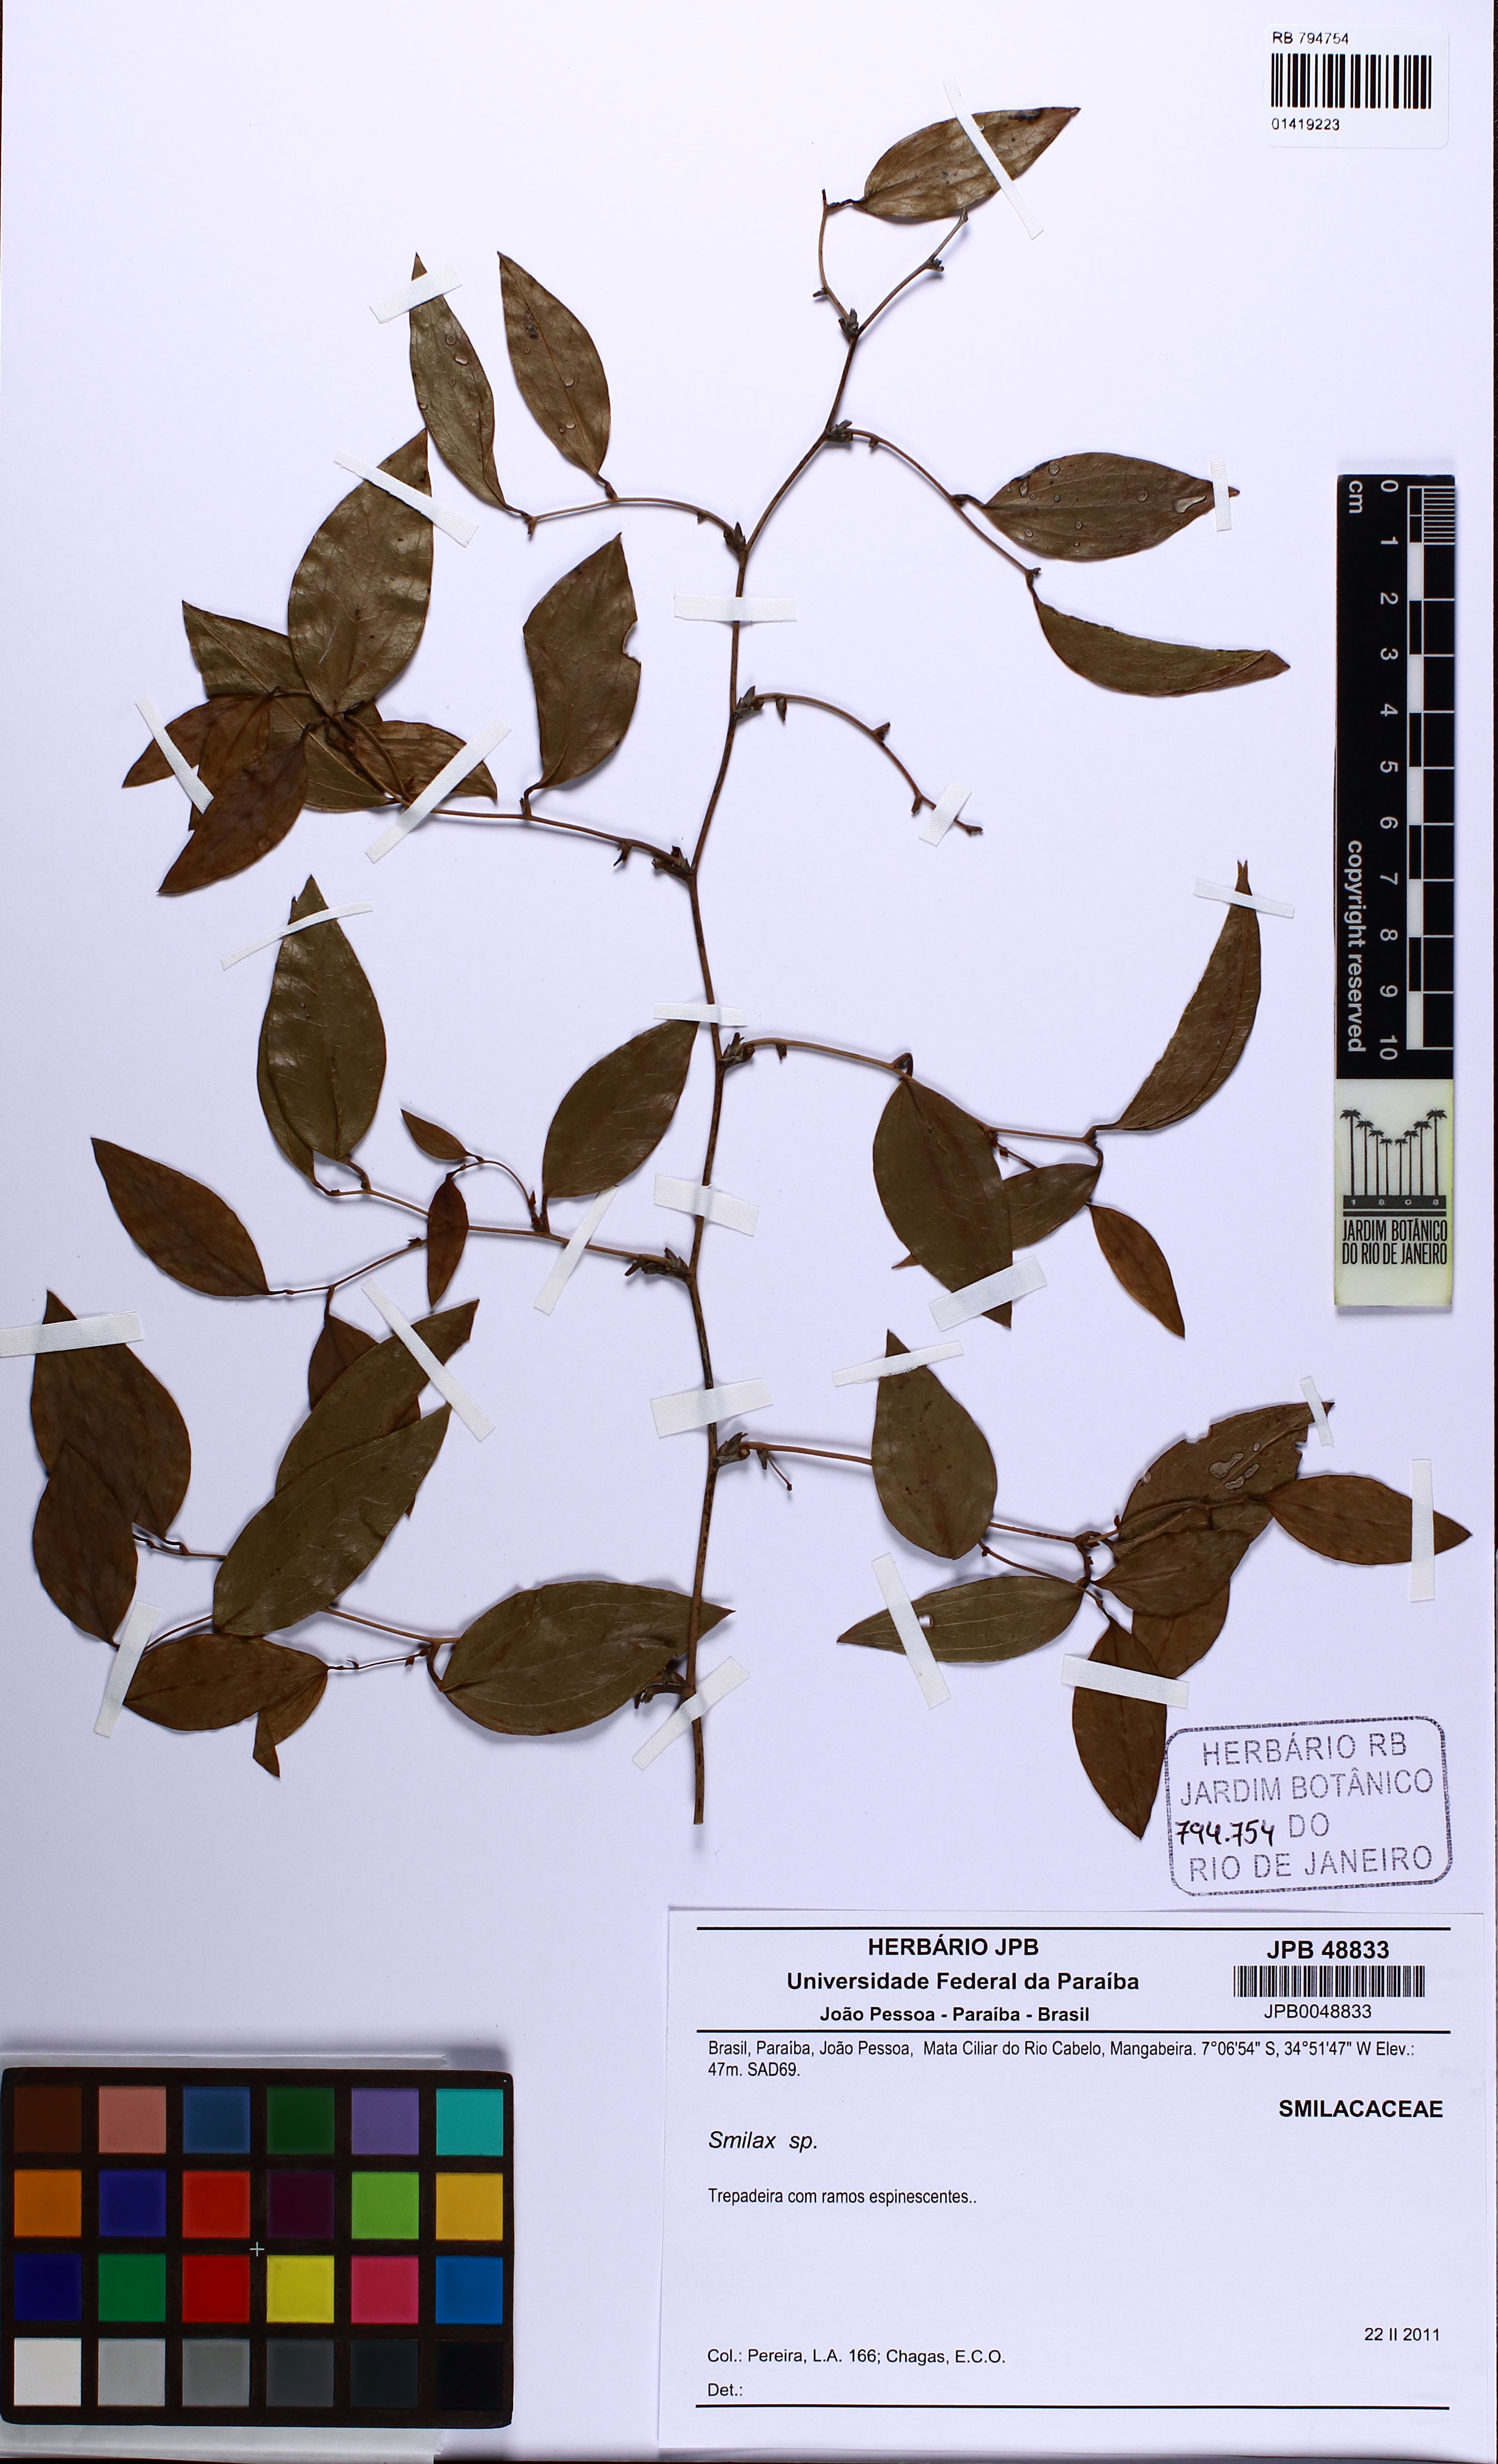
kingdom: Plantae
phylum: Tracheophyta
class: Liliopsida
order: Liliales
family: Smilacaceae
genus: Smilax
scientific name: Smilax
